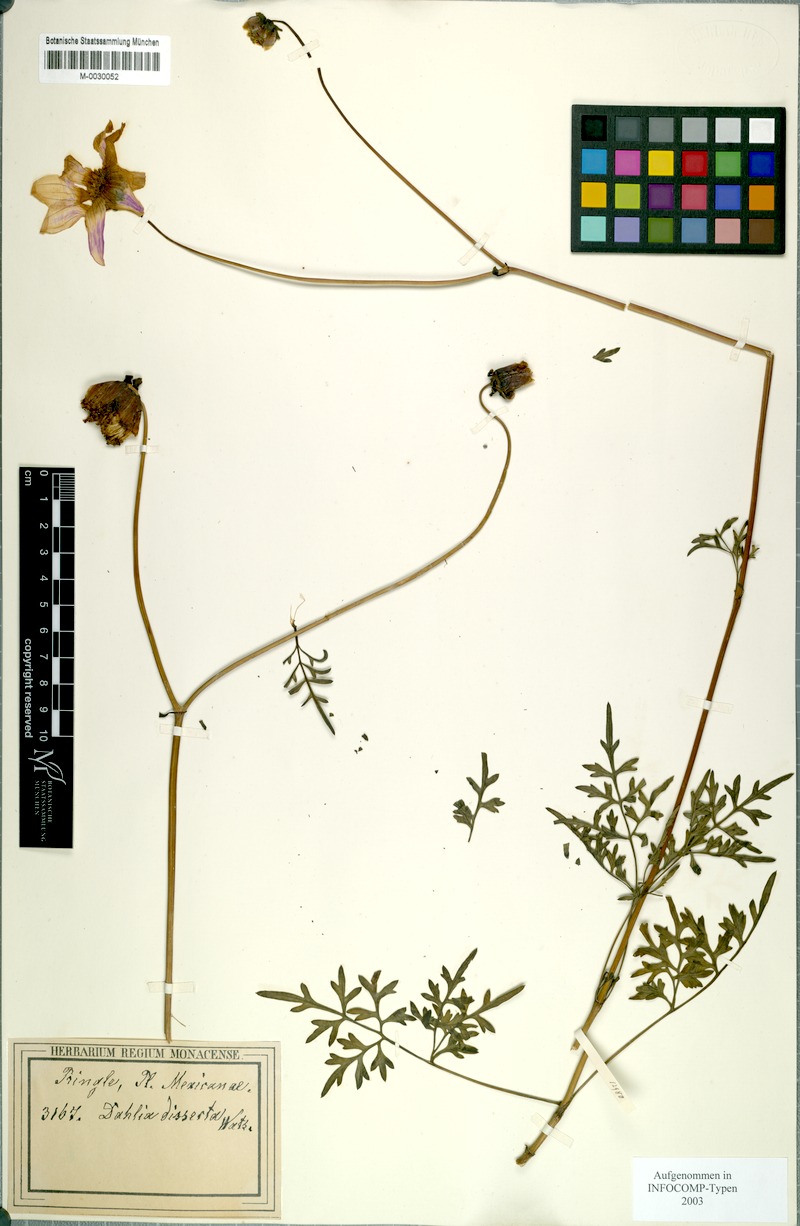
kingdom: Plantae
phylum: Tracheophyta
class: Magnoliopsida
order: Asterales
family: Asteraceae
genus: Dahlia
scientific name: Dahlia dissecta
